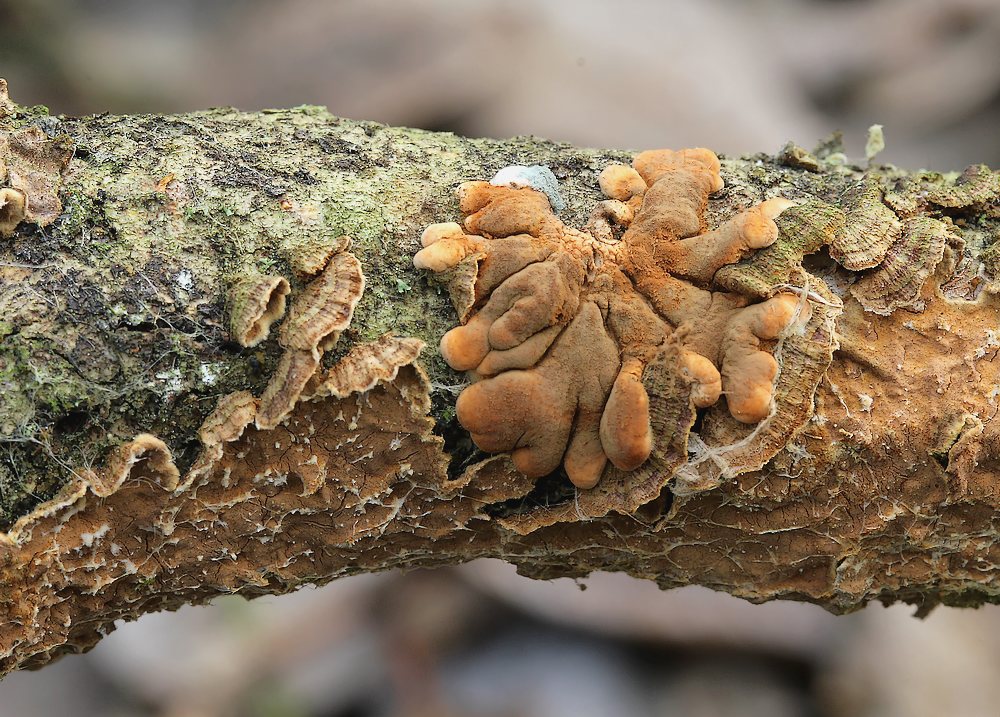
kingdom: Fungi
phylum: Ascomycota
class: Sordariomycetes
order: Hypocreales
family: Hypocreaceae
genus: Hypocreopsis
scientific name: Hypocreopsis lichenoides
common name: pilfinger
